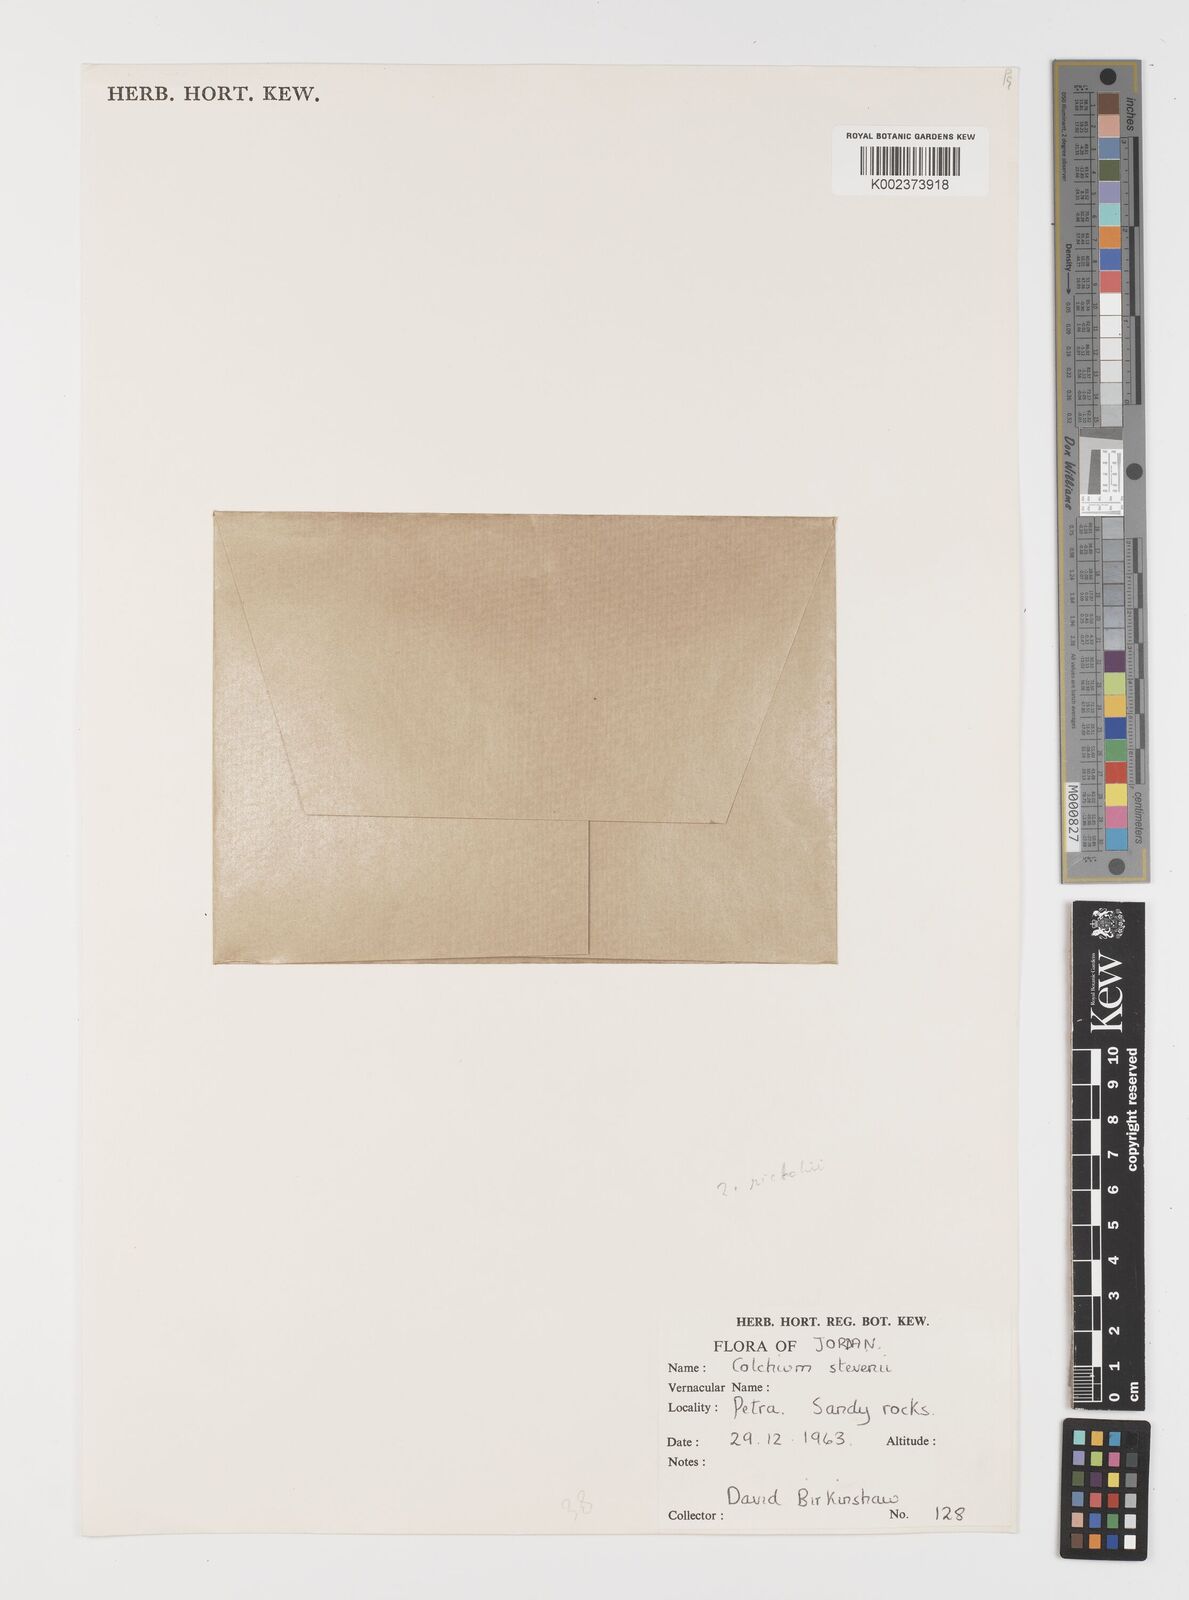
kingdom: Plantae
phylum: Tracheophyta
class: Liliopsida
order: Liliales
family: Colchicaceae
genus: Colchicum
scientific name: Colchicum stevenii
